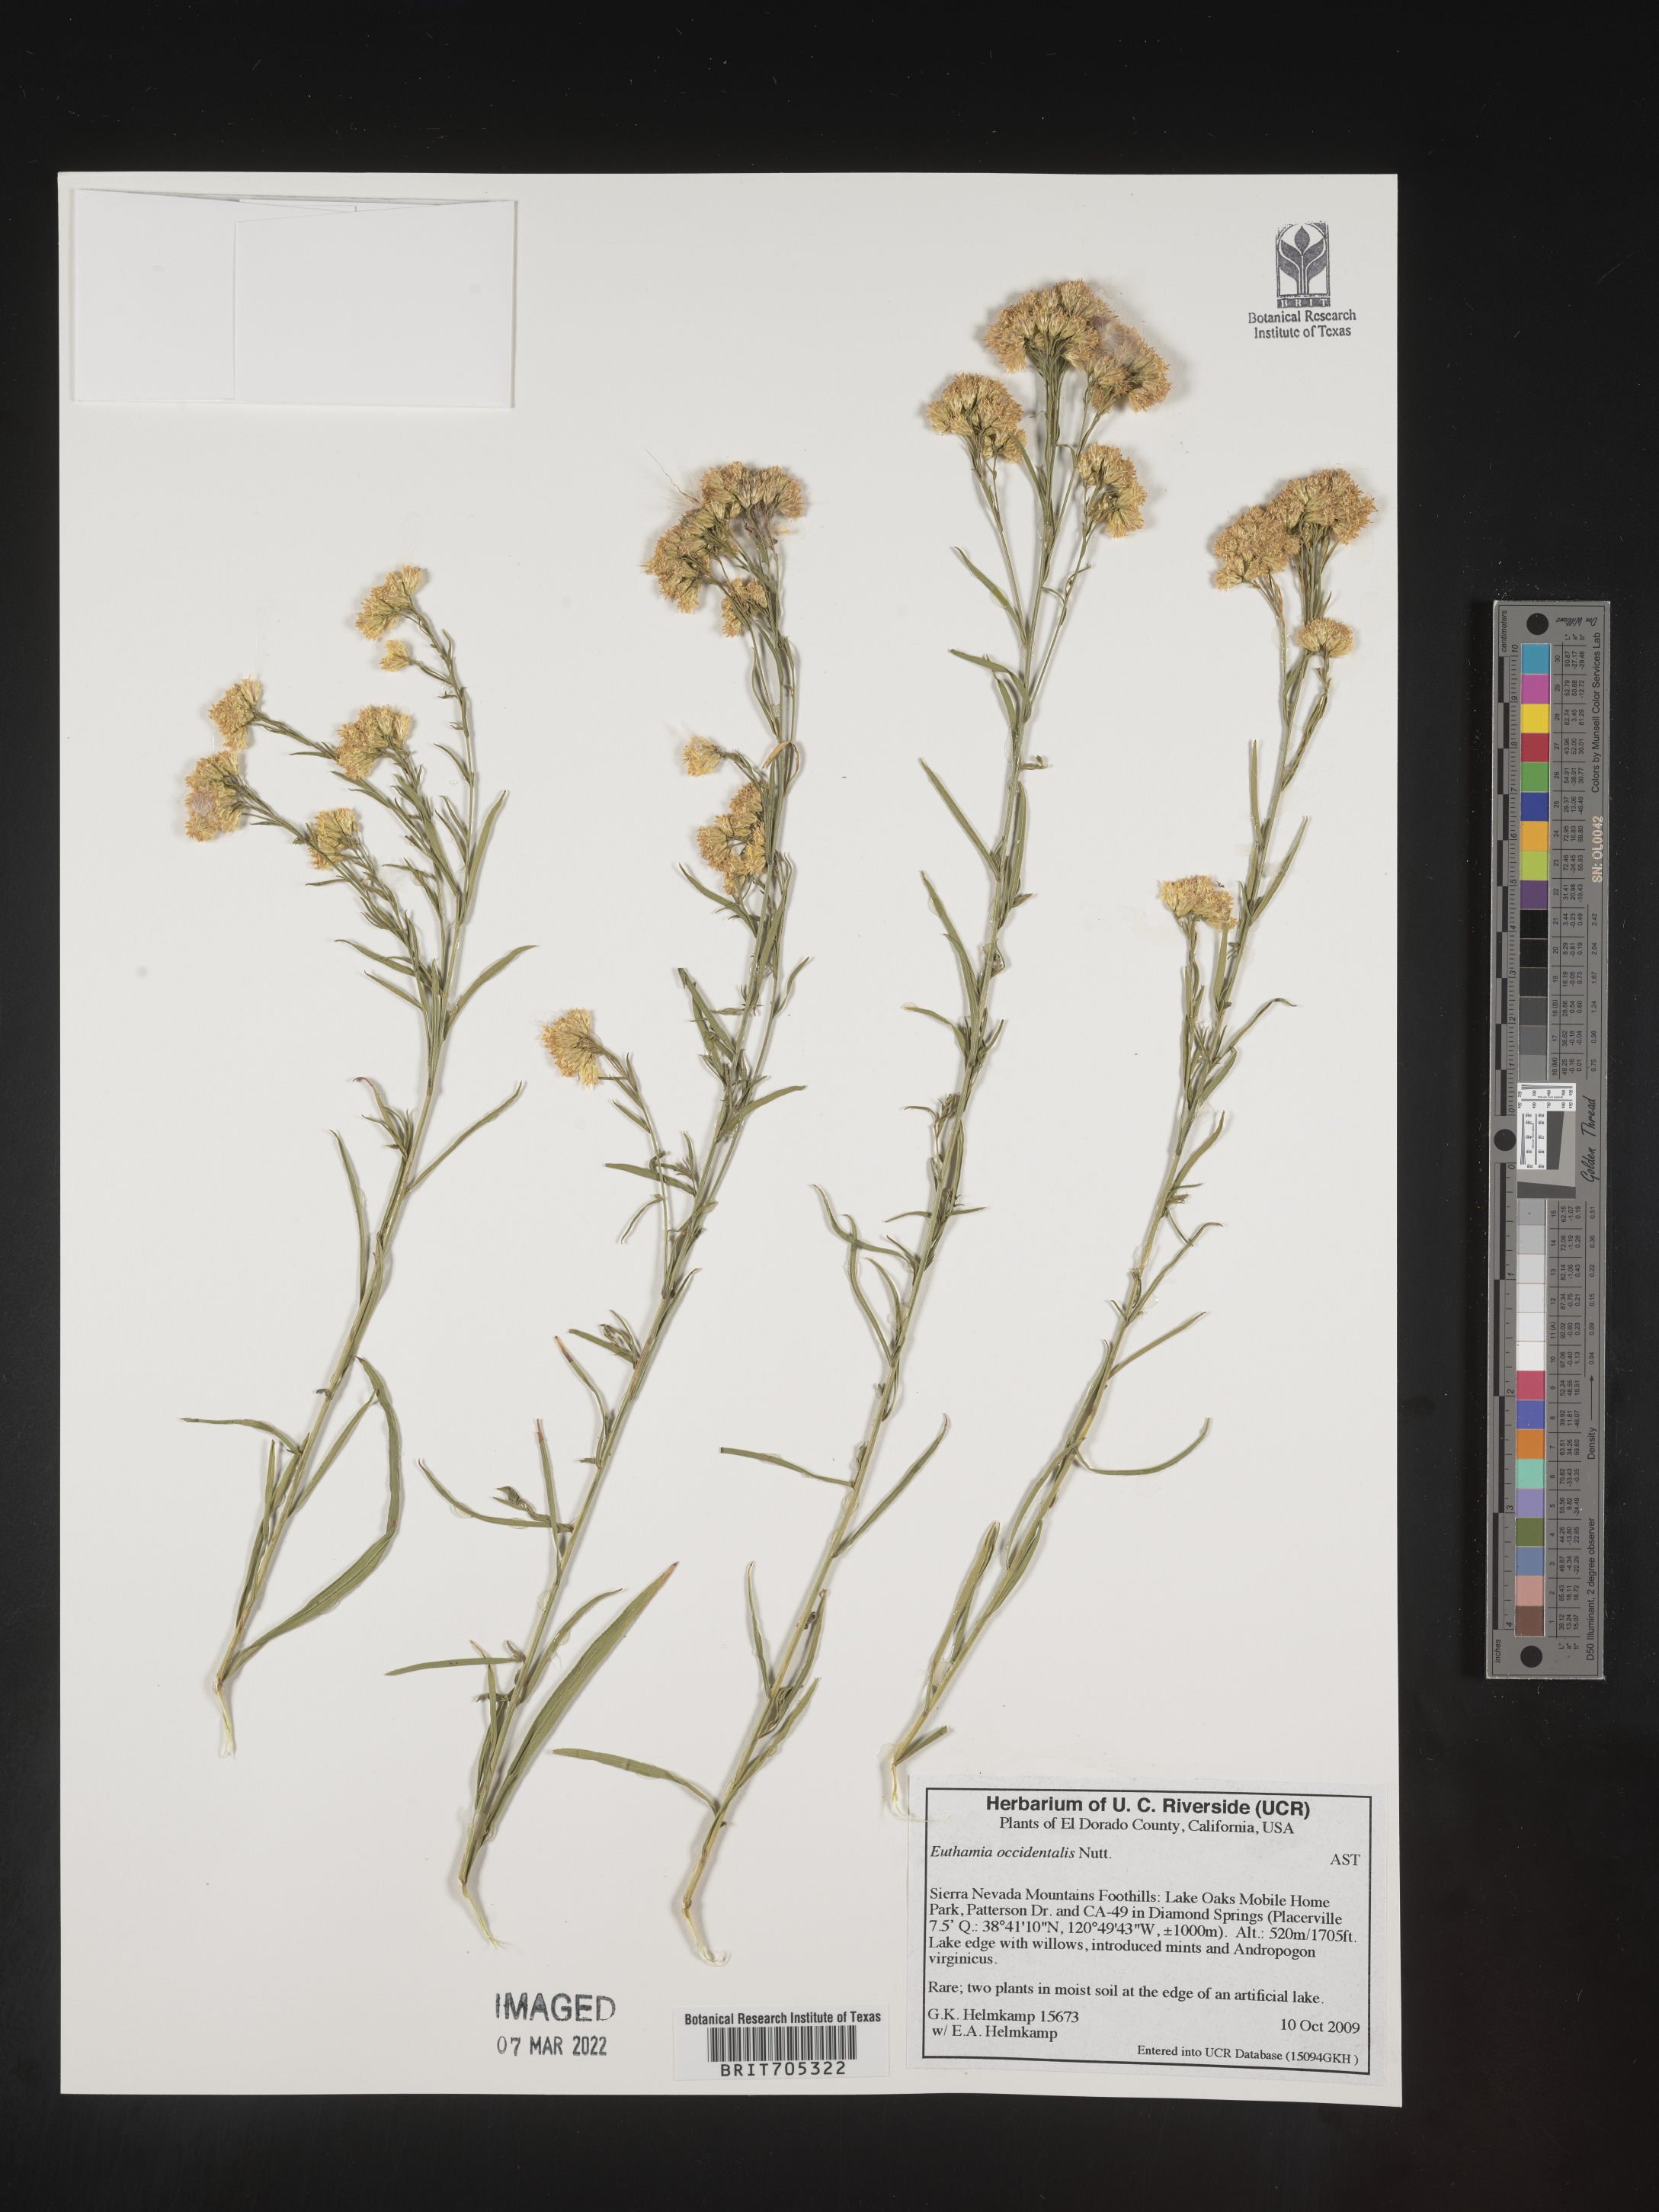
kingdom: Plantae
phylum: Tracheophyta
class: Magnoliopsida
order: Asterales
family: Asteraceae
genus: Euthamia
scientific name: Euthamia occidentalis
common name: Western goldentop
